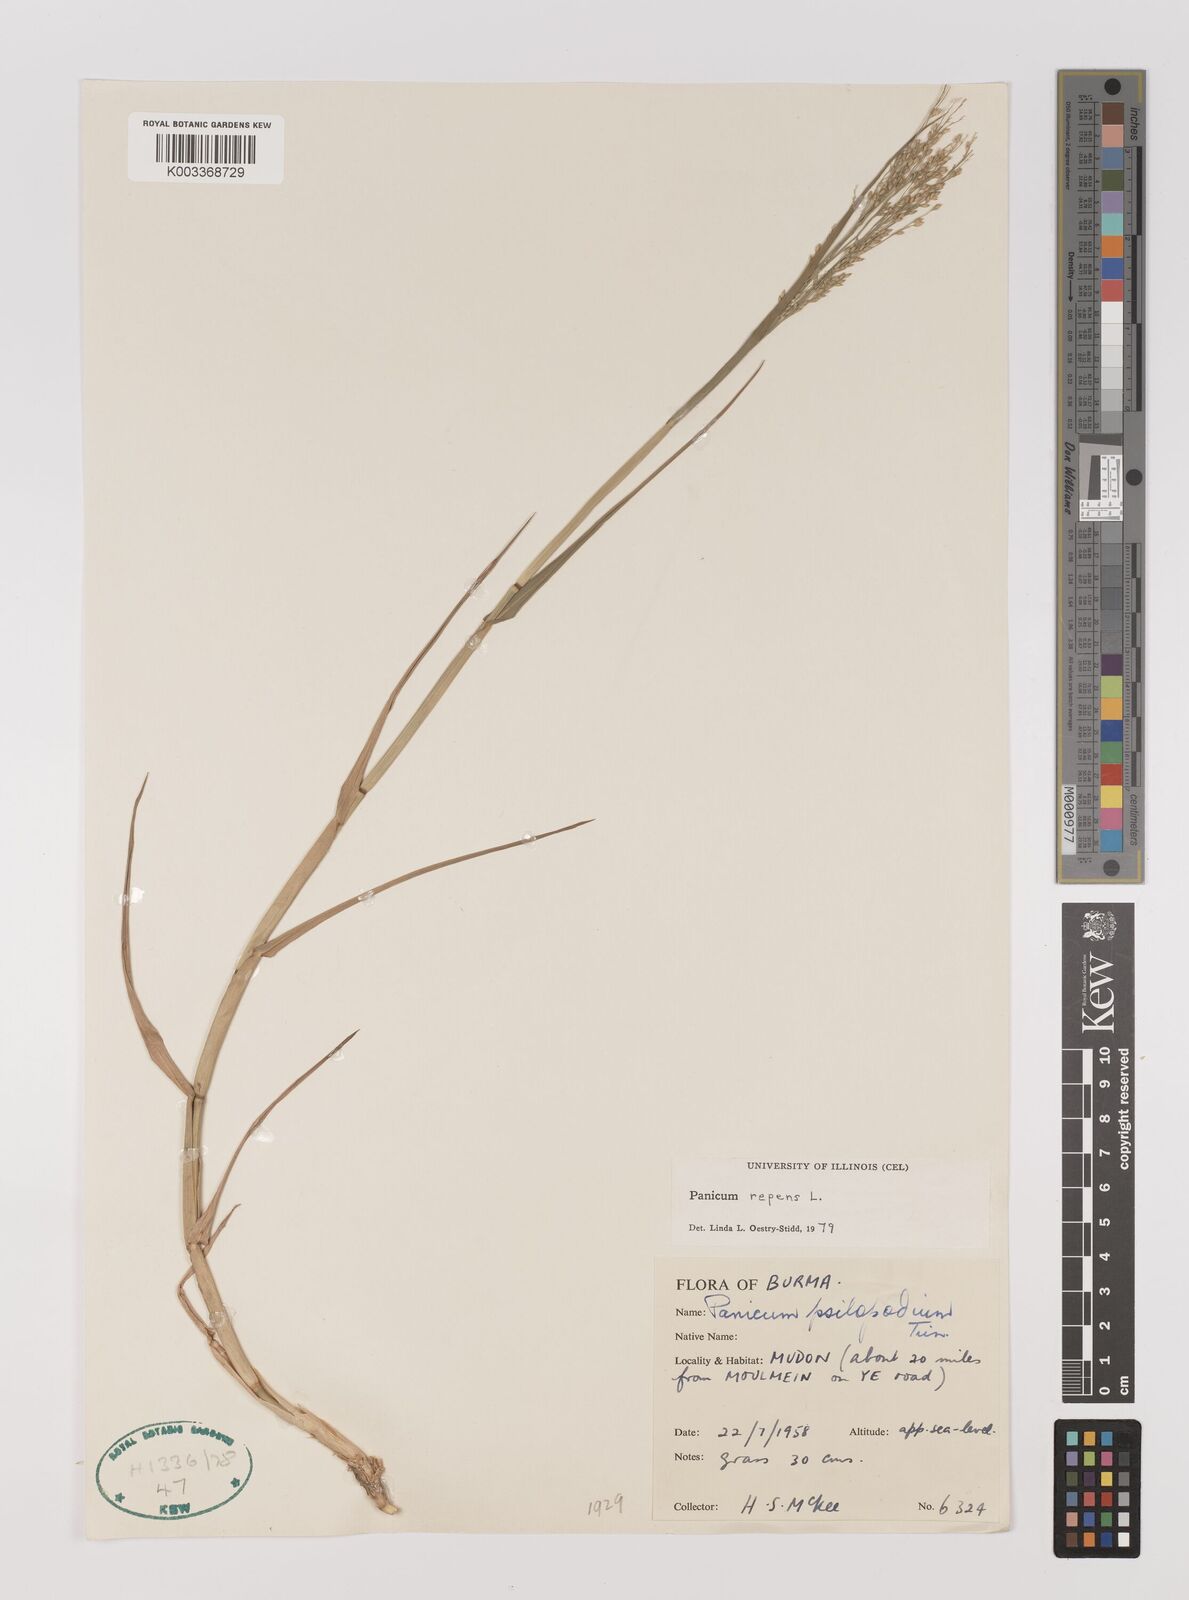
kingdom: Plantae
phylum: Tracheophyta
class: Liliopsida
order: Poales
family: Poaceae
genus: Panicum
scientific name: Panicum repens
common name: Torpedo grass
